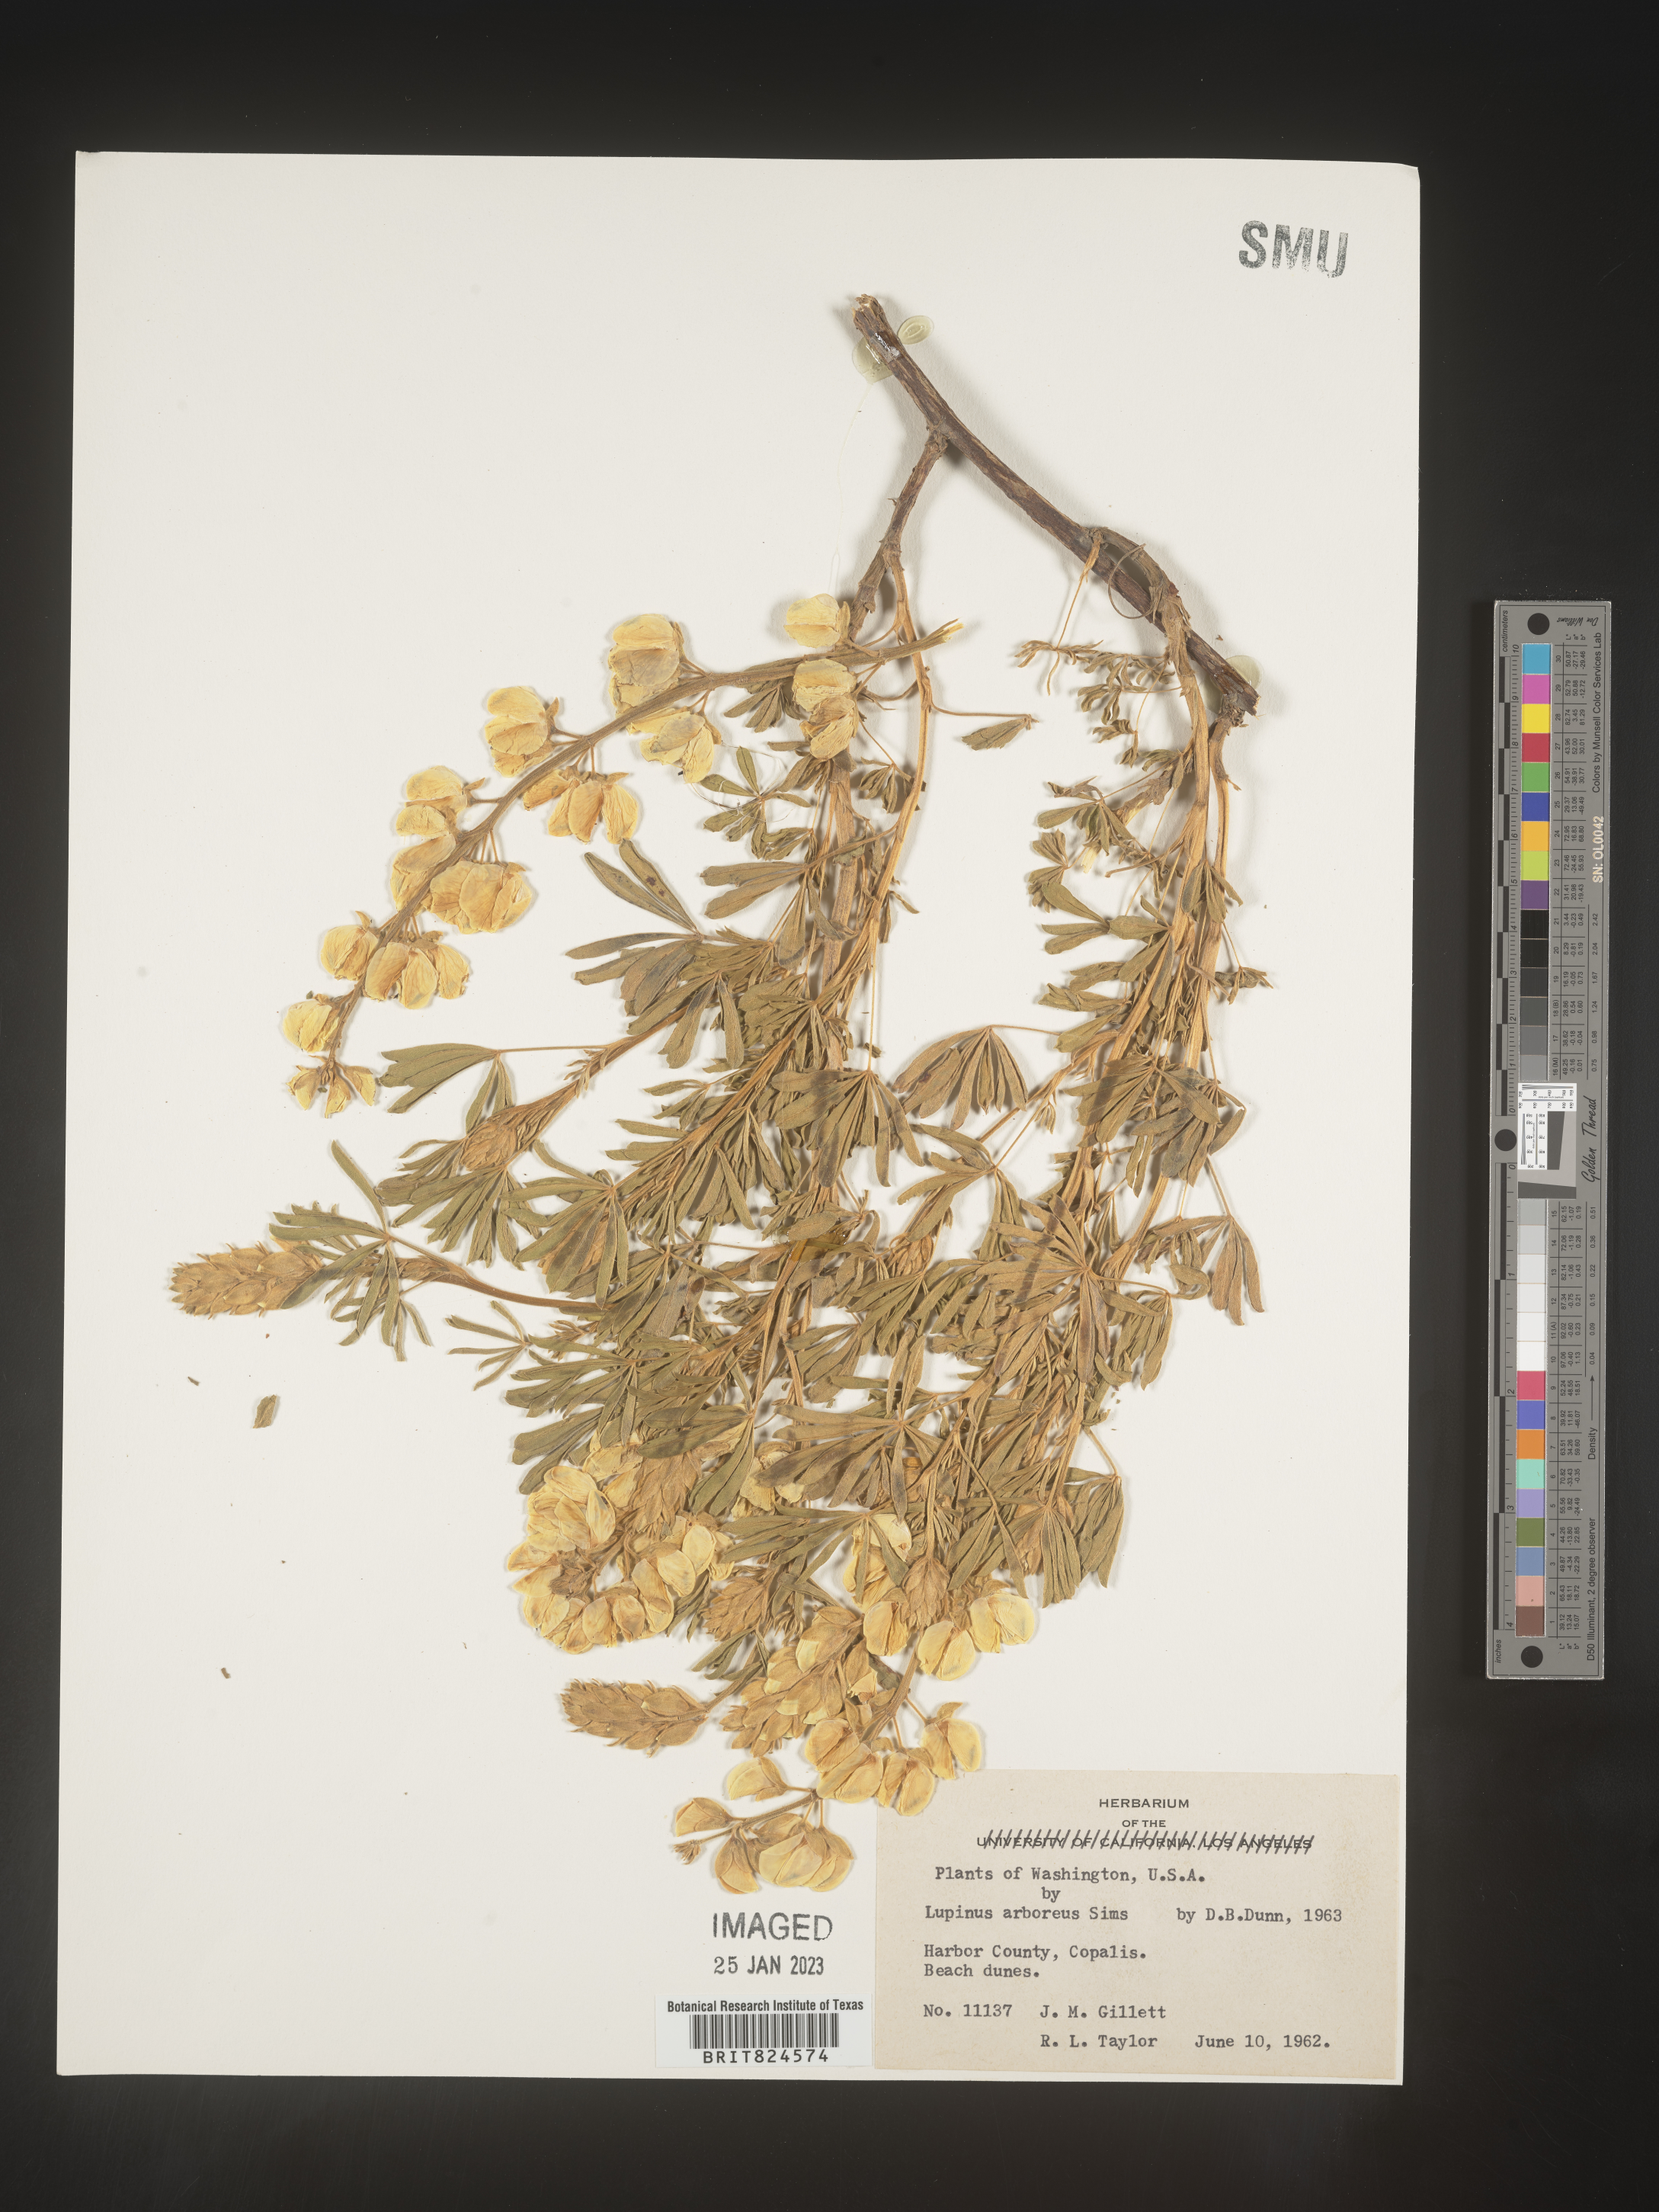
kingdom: Plantae
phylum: Tracheophyta
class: Magnoliopsida
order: Fabales
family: Fabaceae
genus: Lupinus
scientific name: Lupinus arboreus
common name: Yellow bush lupine
